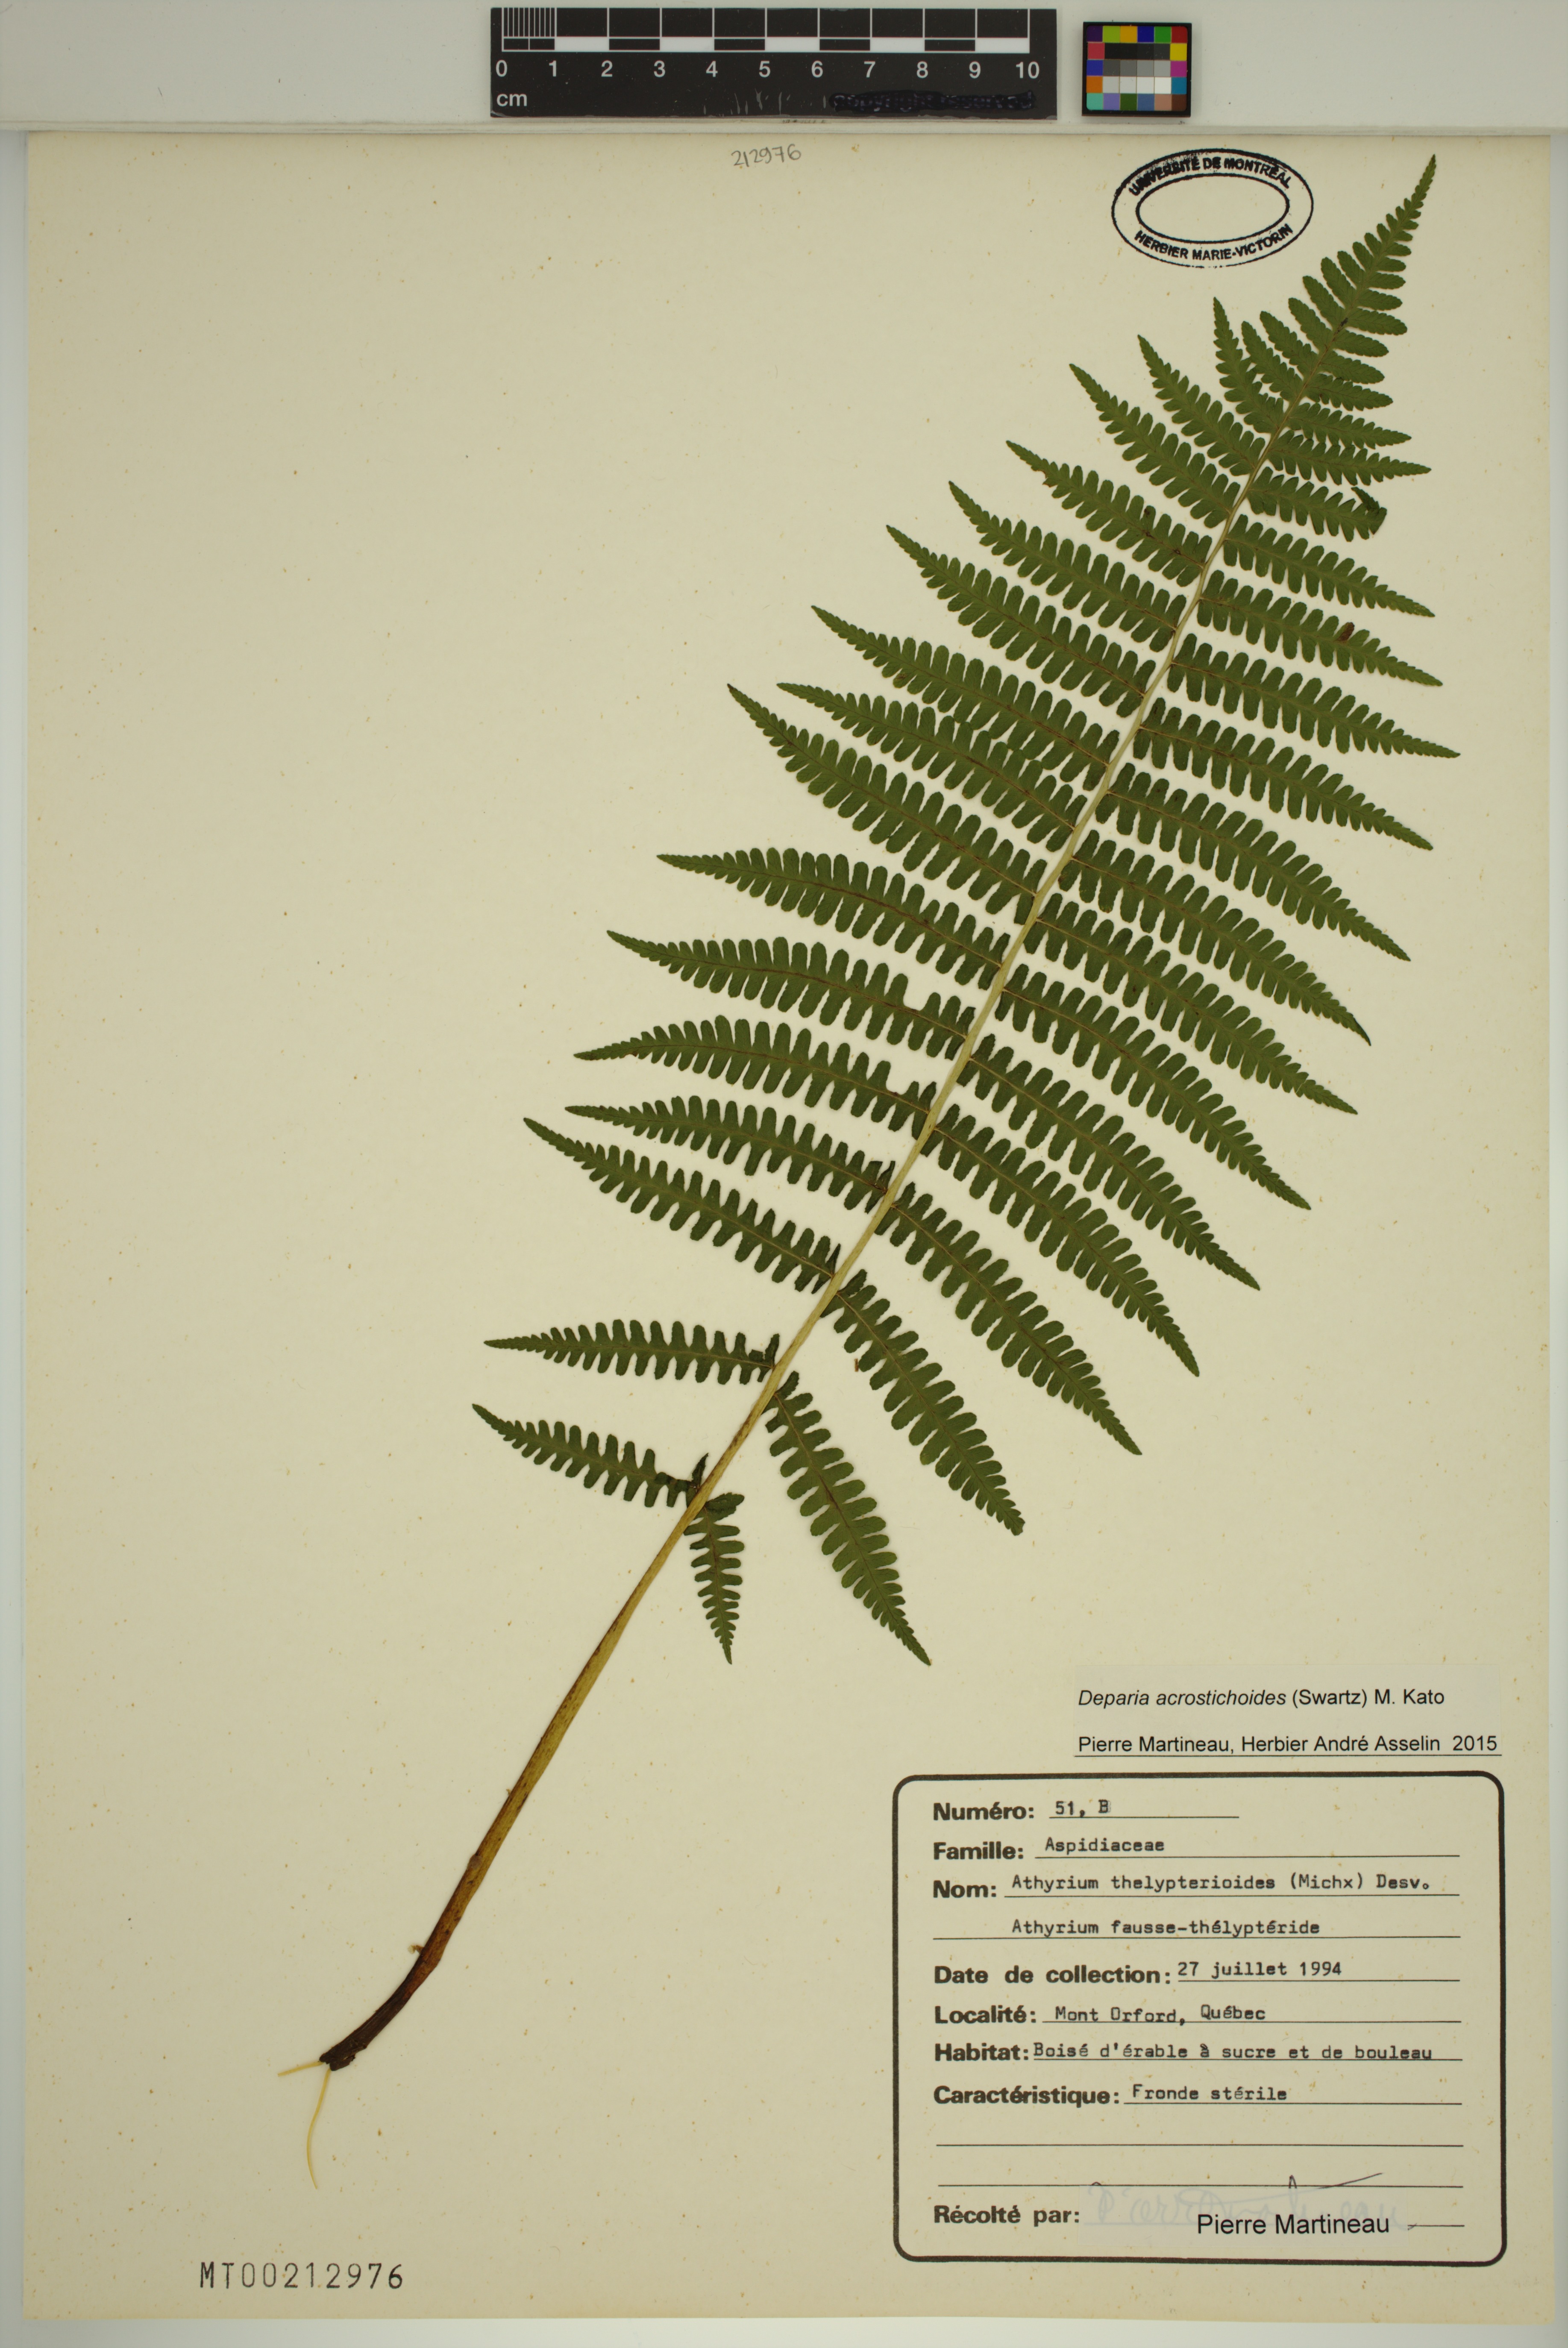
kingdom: Plantae
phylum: Tracheophyta
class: Polypodiopsida
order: Polypodiales
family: Athyriaceae
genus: Deparia
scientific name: Deparia acrostichoides
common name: Silver false spleenwort
